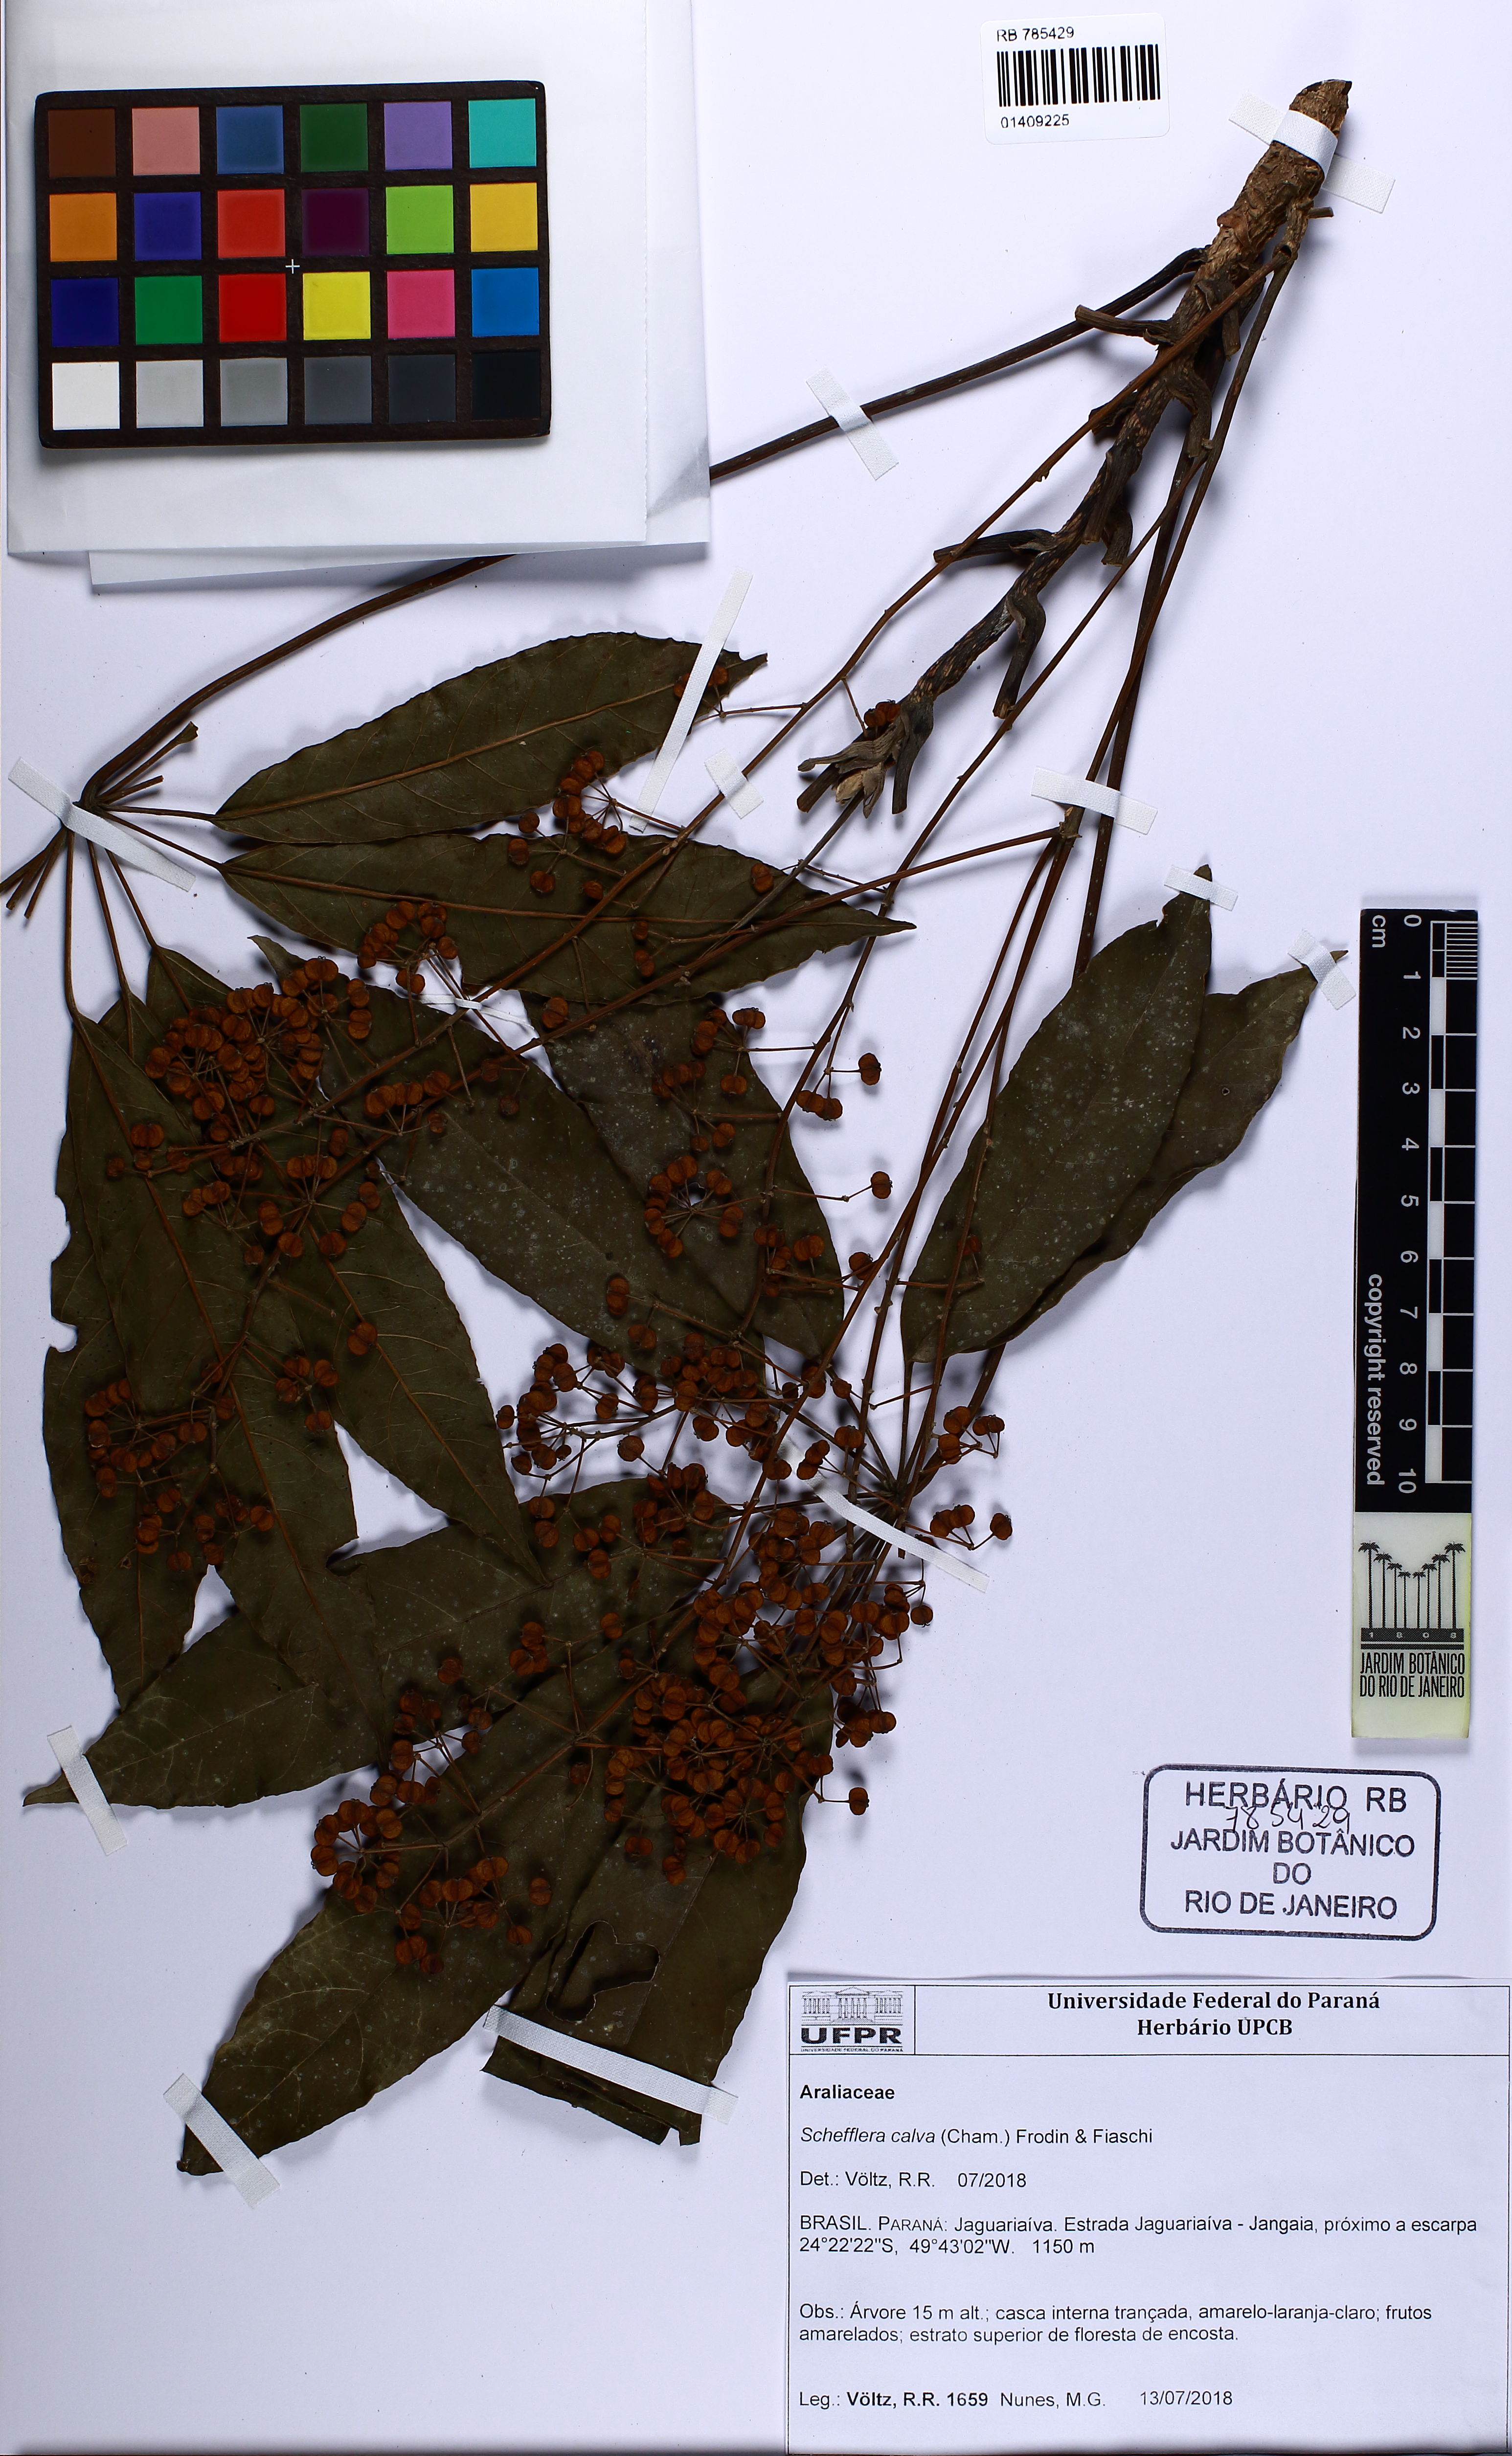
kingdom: Plantae
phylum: Tracheophyta
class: Magnoliopsida
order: Apiales
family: Araliaceae
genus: Didymopanax
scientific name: Didymopanax calvus
